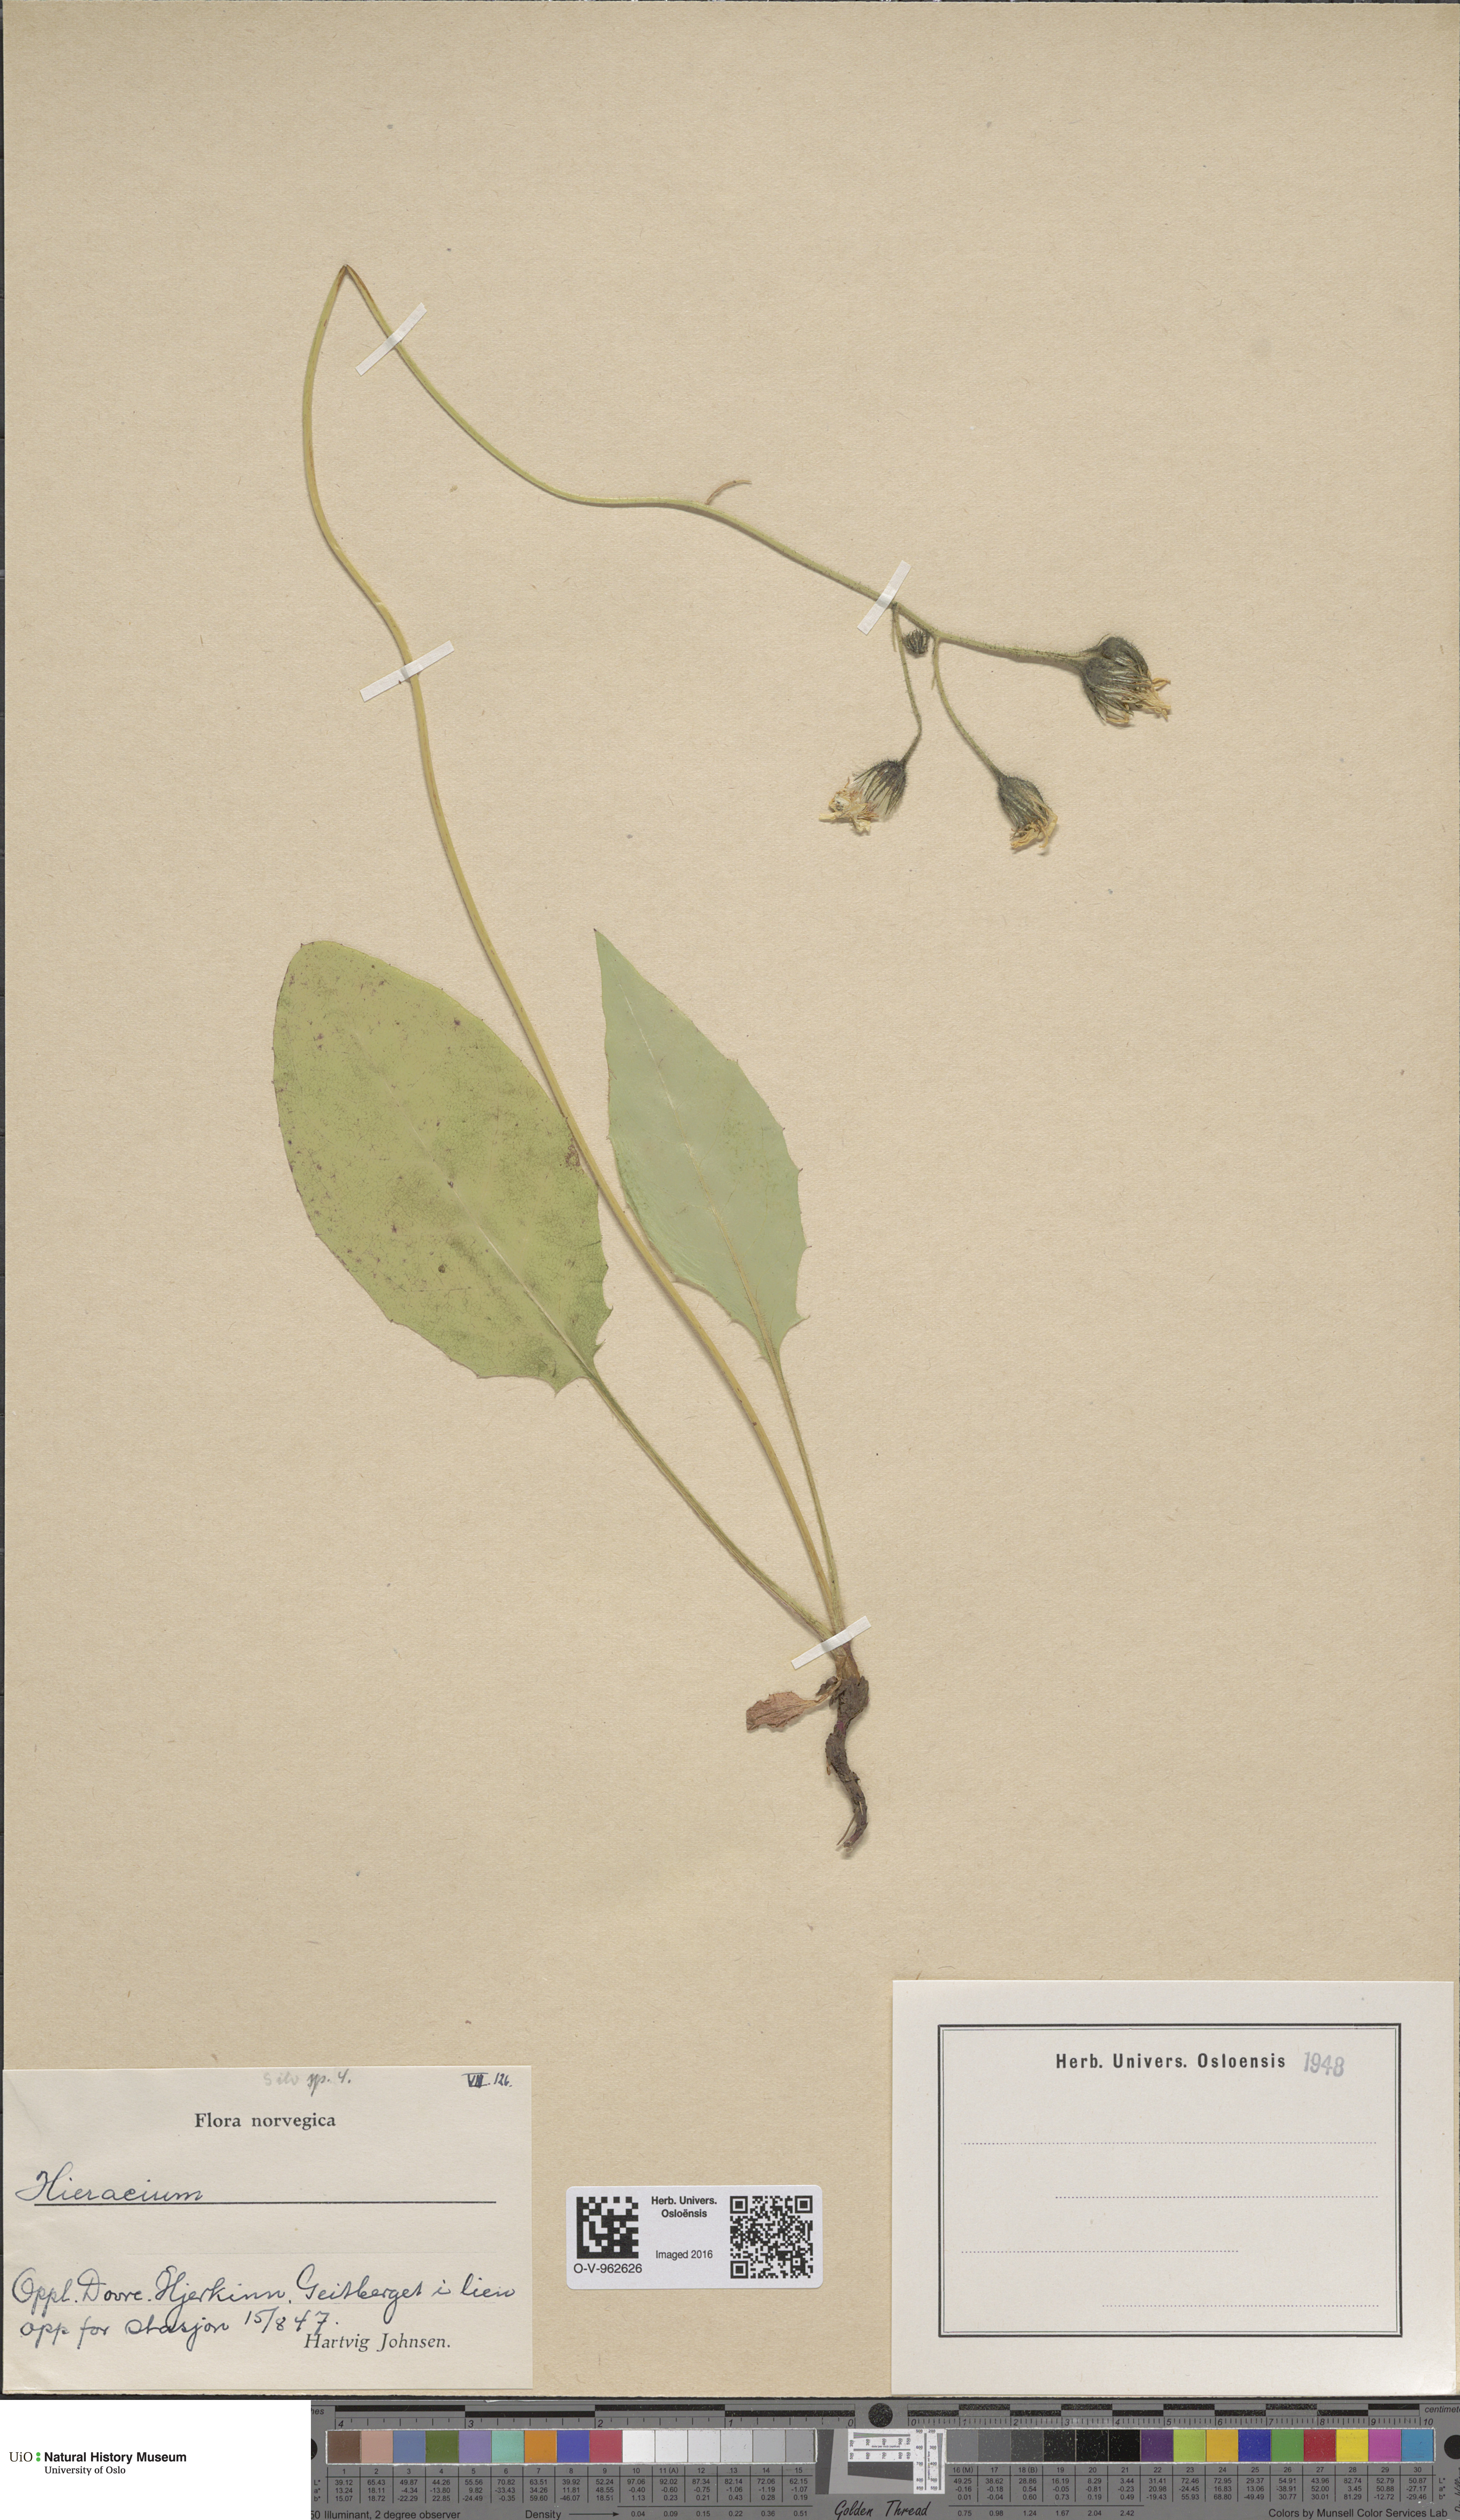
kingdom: Plantae
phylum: Tracheophyta
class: Magnoliopsida
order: Asterales
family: Asteraceae
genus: Hieracium
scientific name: Hieracium
